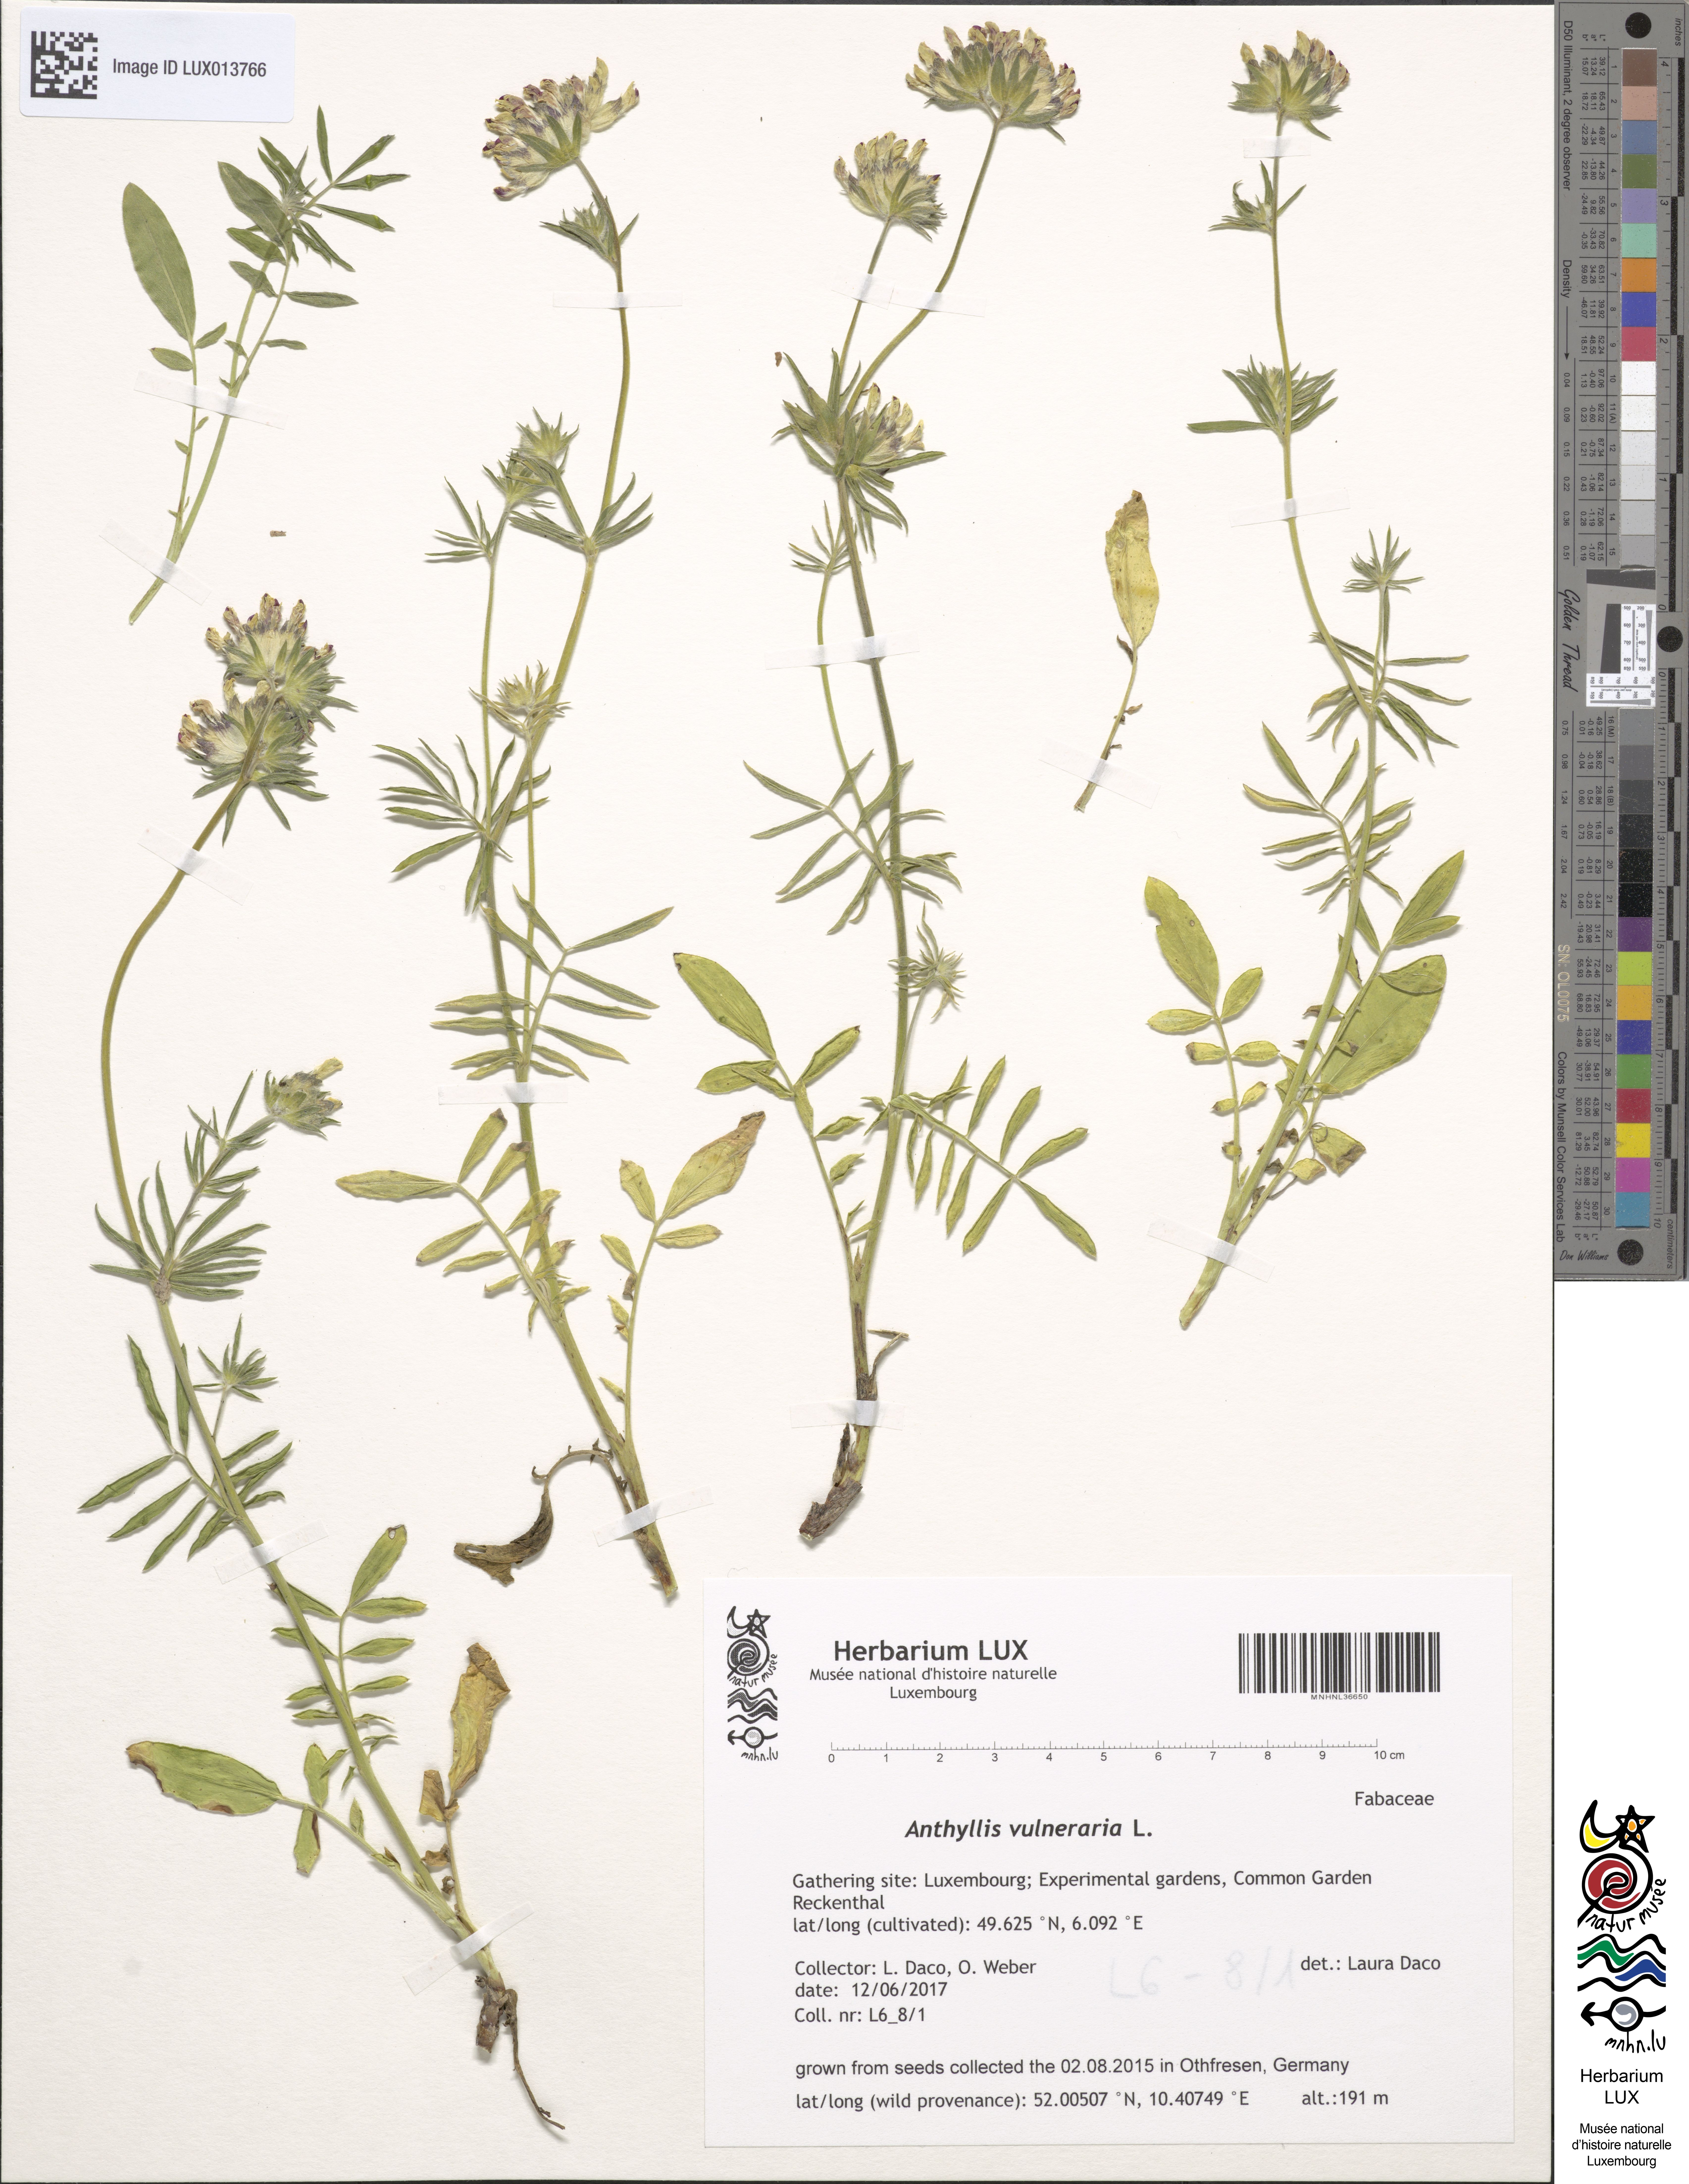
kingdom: Plantae
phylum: Tracheophyta
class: Magnoliopsida
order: Fabales
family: Fabaceae
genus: Anthyllis
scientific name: Anthyllis vulneraria
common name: Kidney vetch
